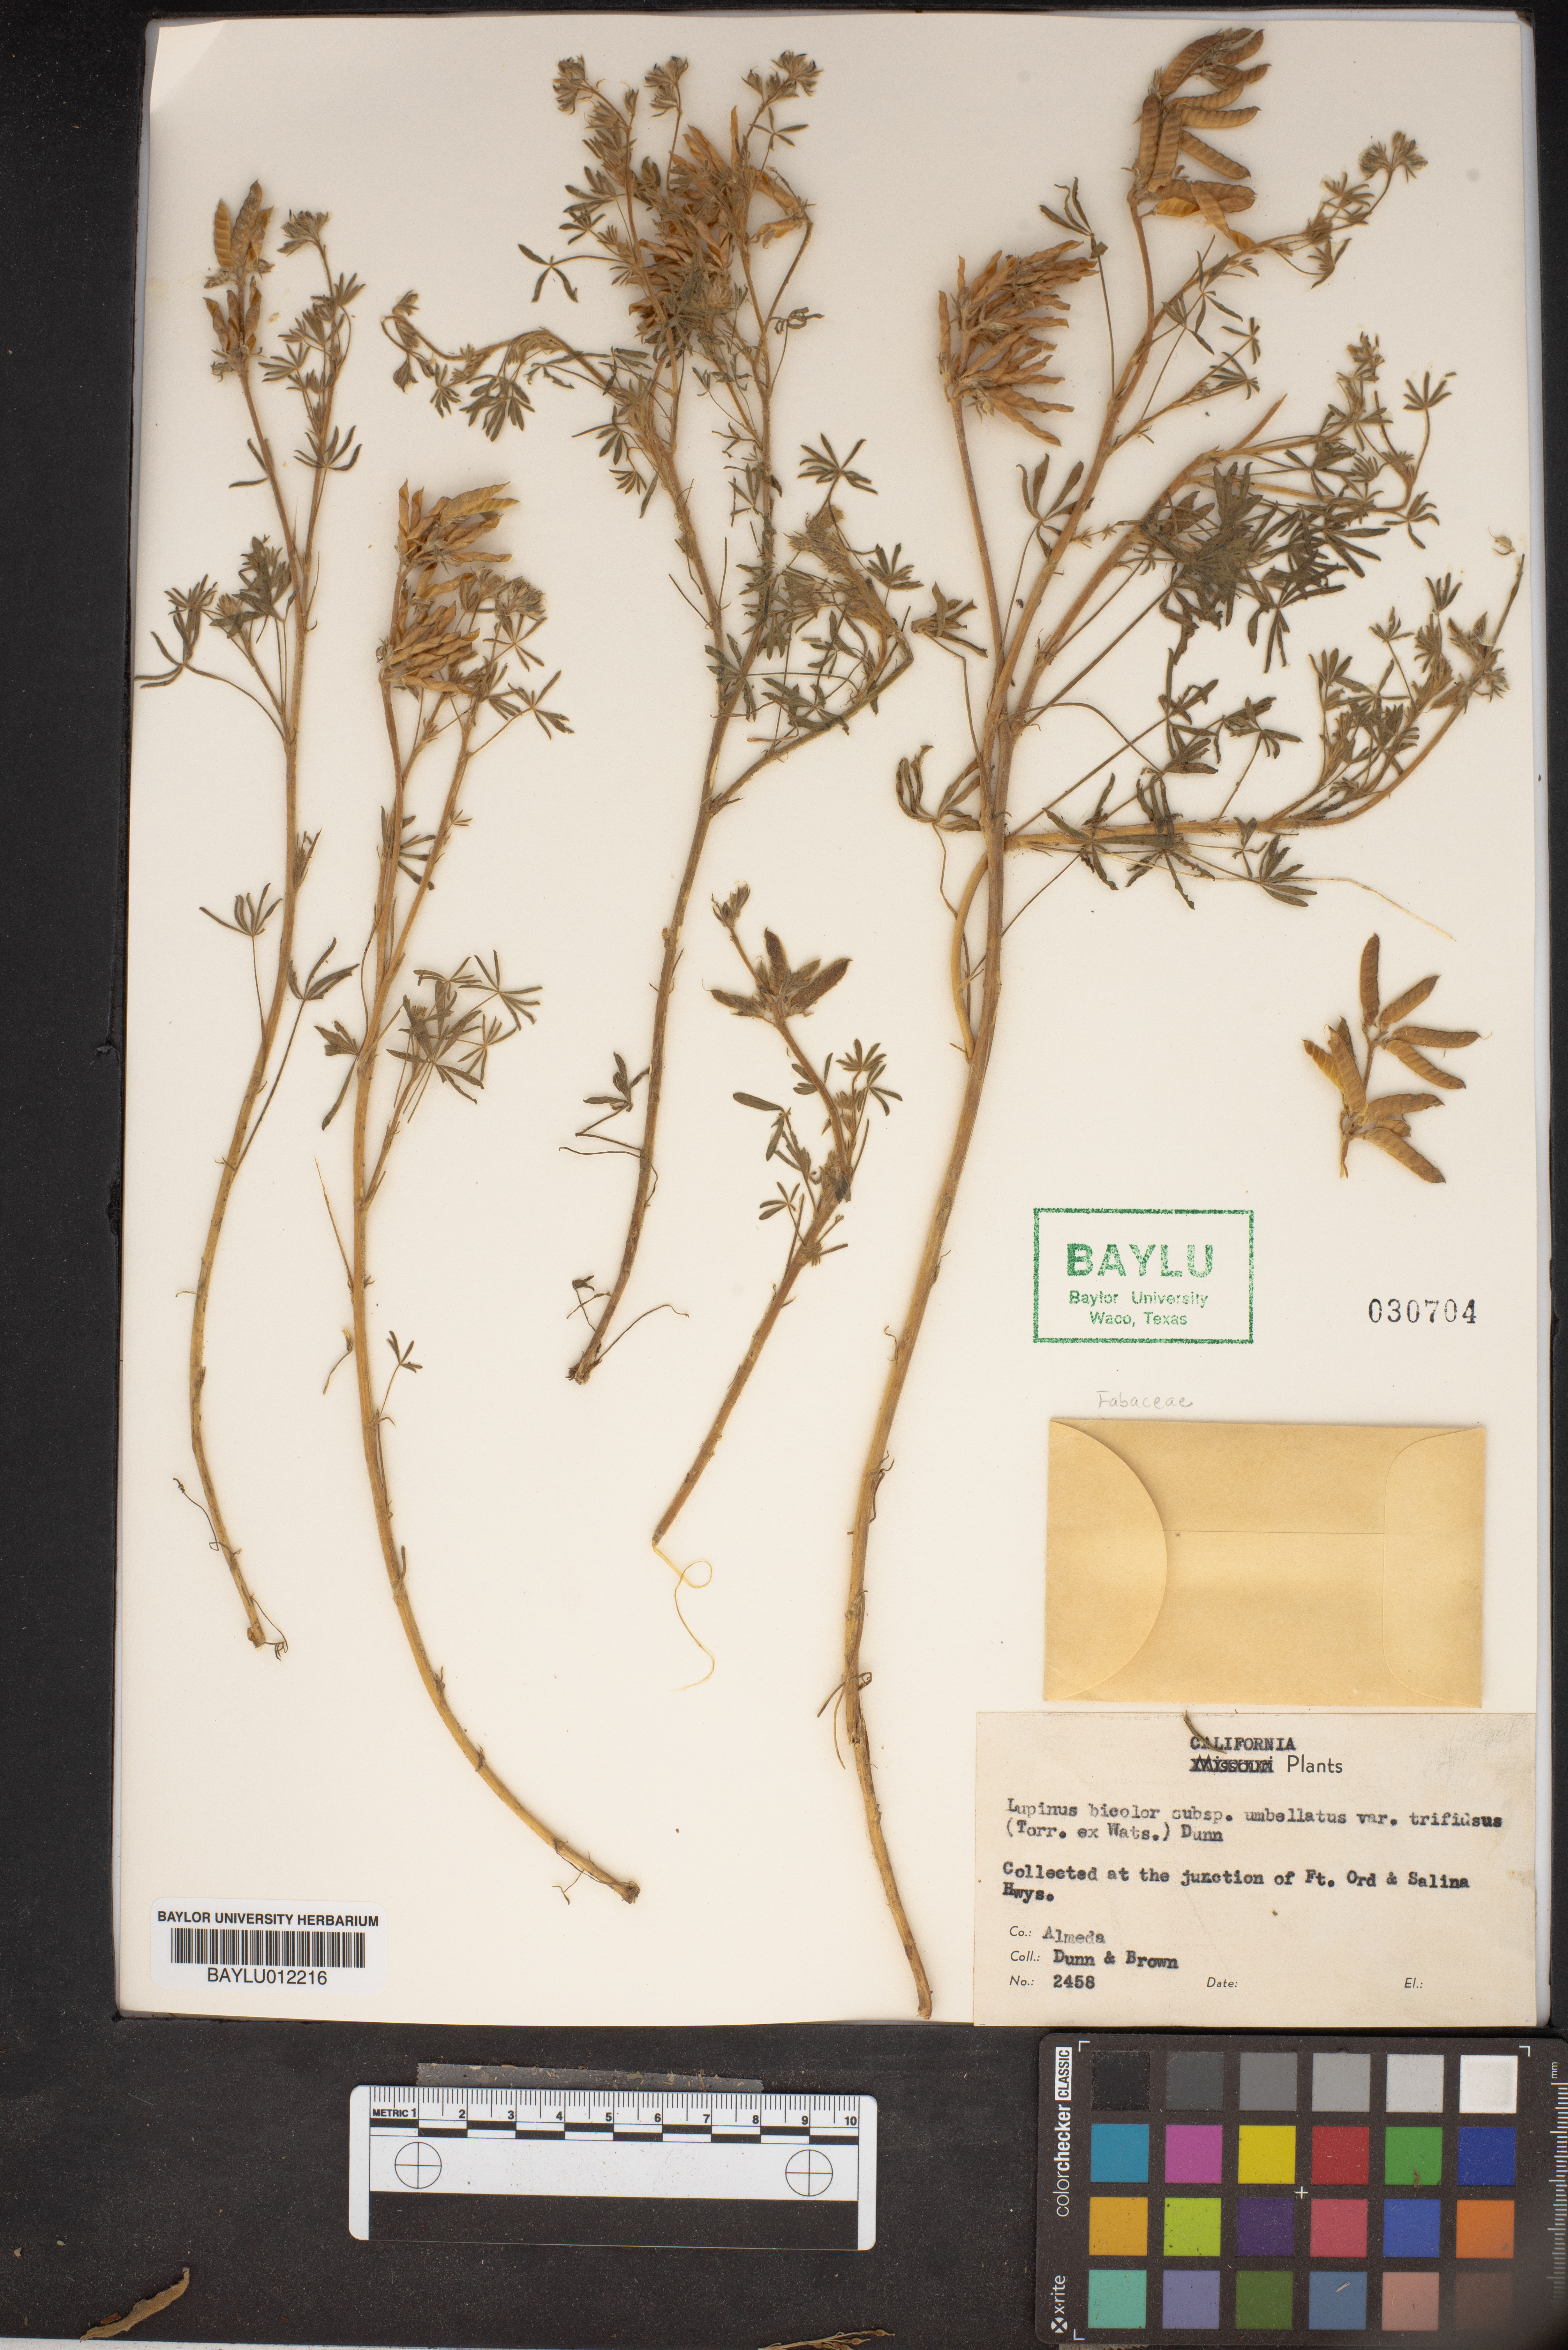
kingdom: Plantae
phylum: Tracheophyta
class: Magnoliopsida
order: Fabales
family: Fabaceae
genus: Lupinus
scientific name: Lupinus bicolor
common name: Miniature lupine
